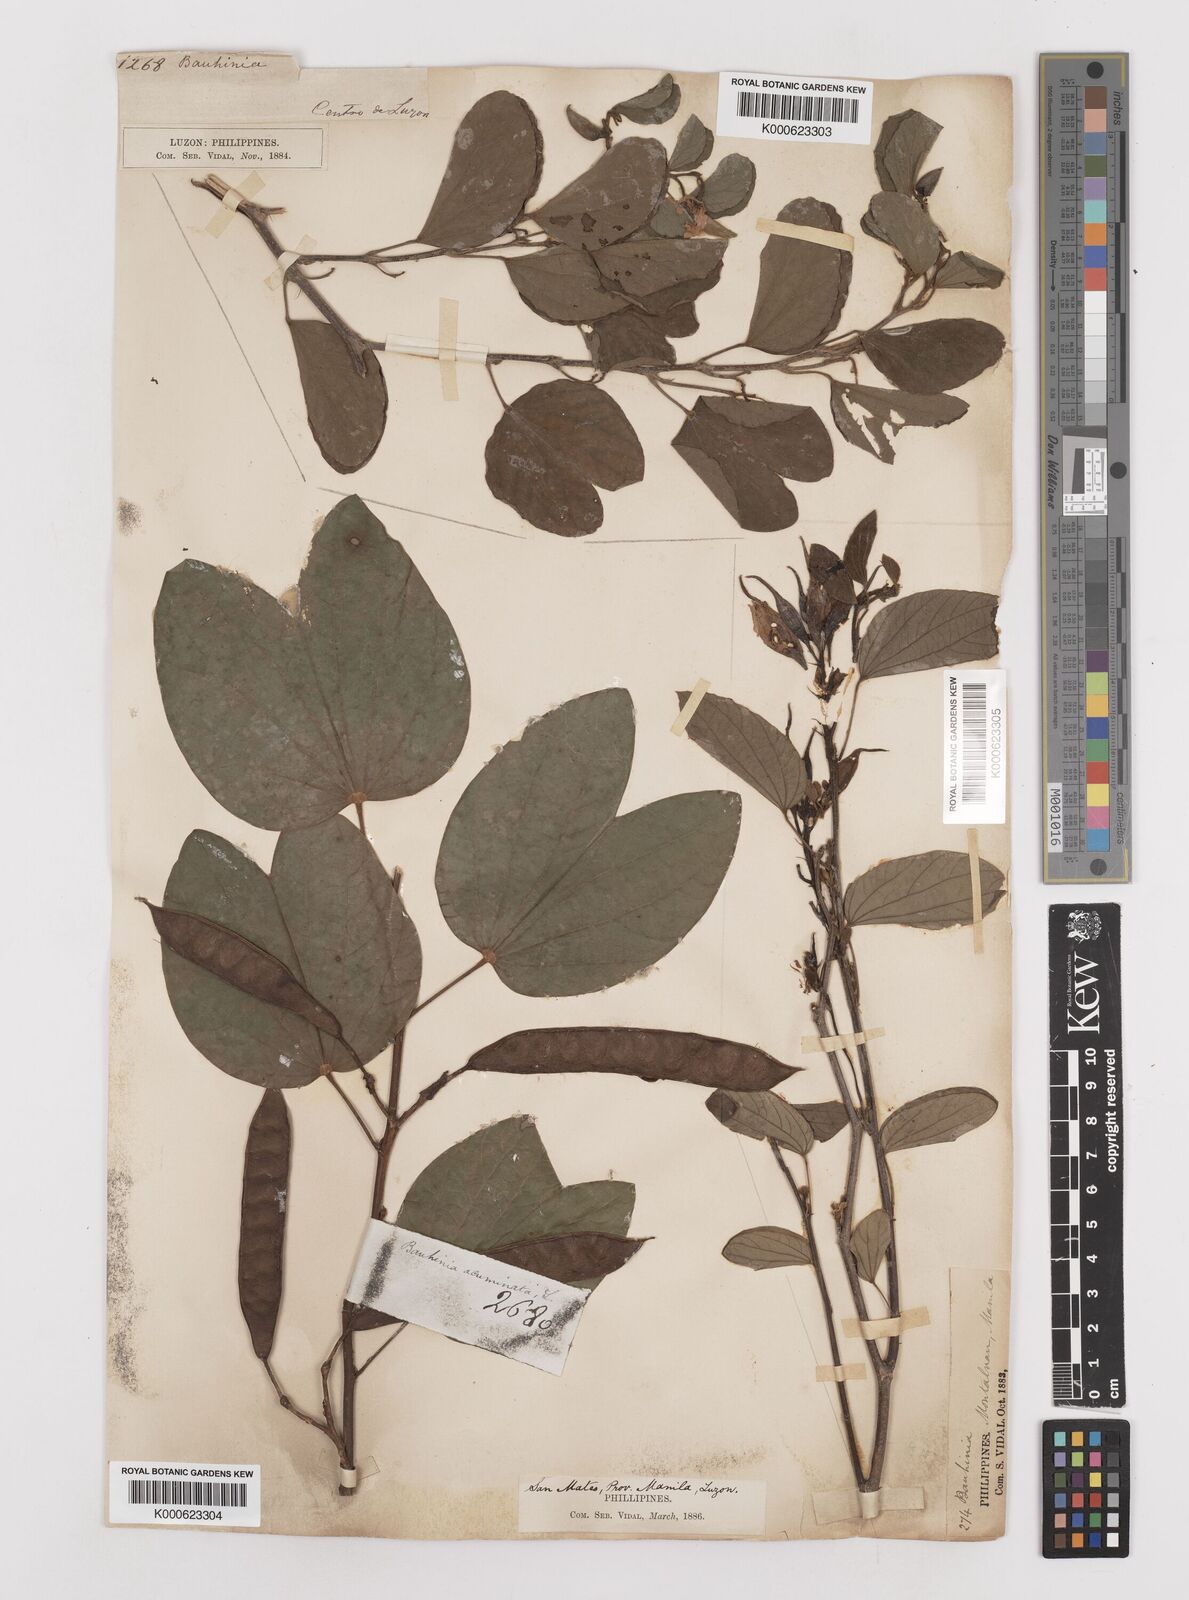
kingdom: Plantae
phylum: Tracheophyta
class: Magnoliopsida
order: Fabales
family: Fabaceae
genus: Bauhinia
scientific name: Bauhinia acuminata
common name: Dwarf white bauhinia
